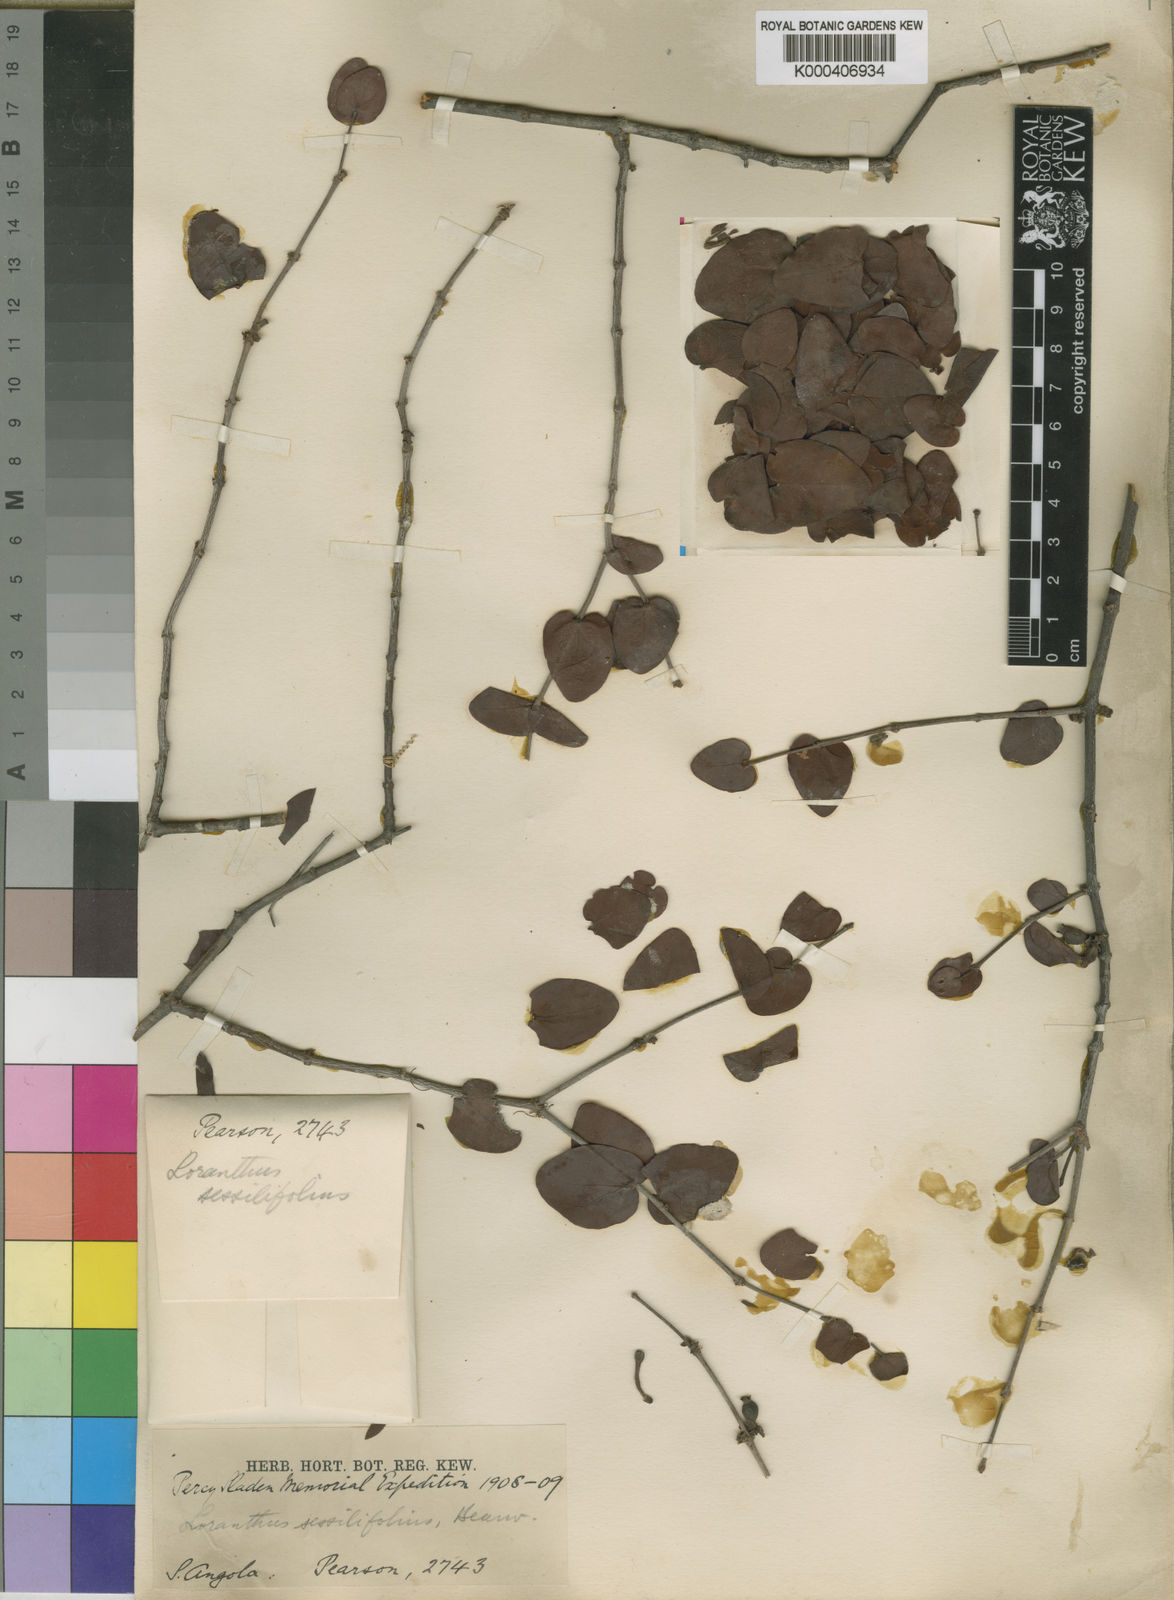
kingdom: Plantae
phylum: Tracheophyta
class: Magnoliopsida
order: Santalales
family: Loranthaceae
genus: Tapinanthus
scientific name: Tapinanthus glaucophyllus
